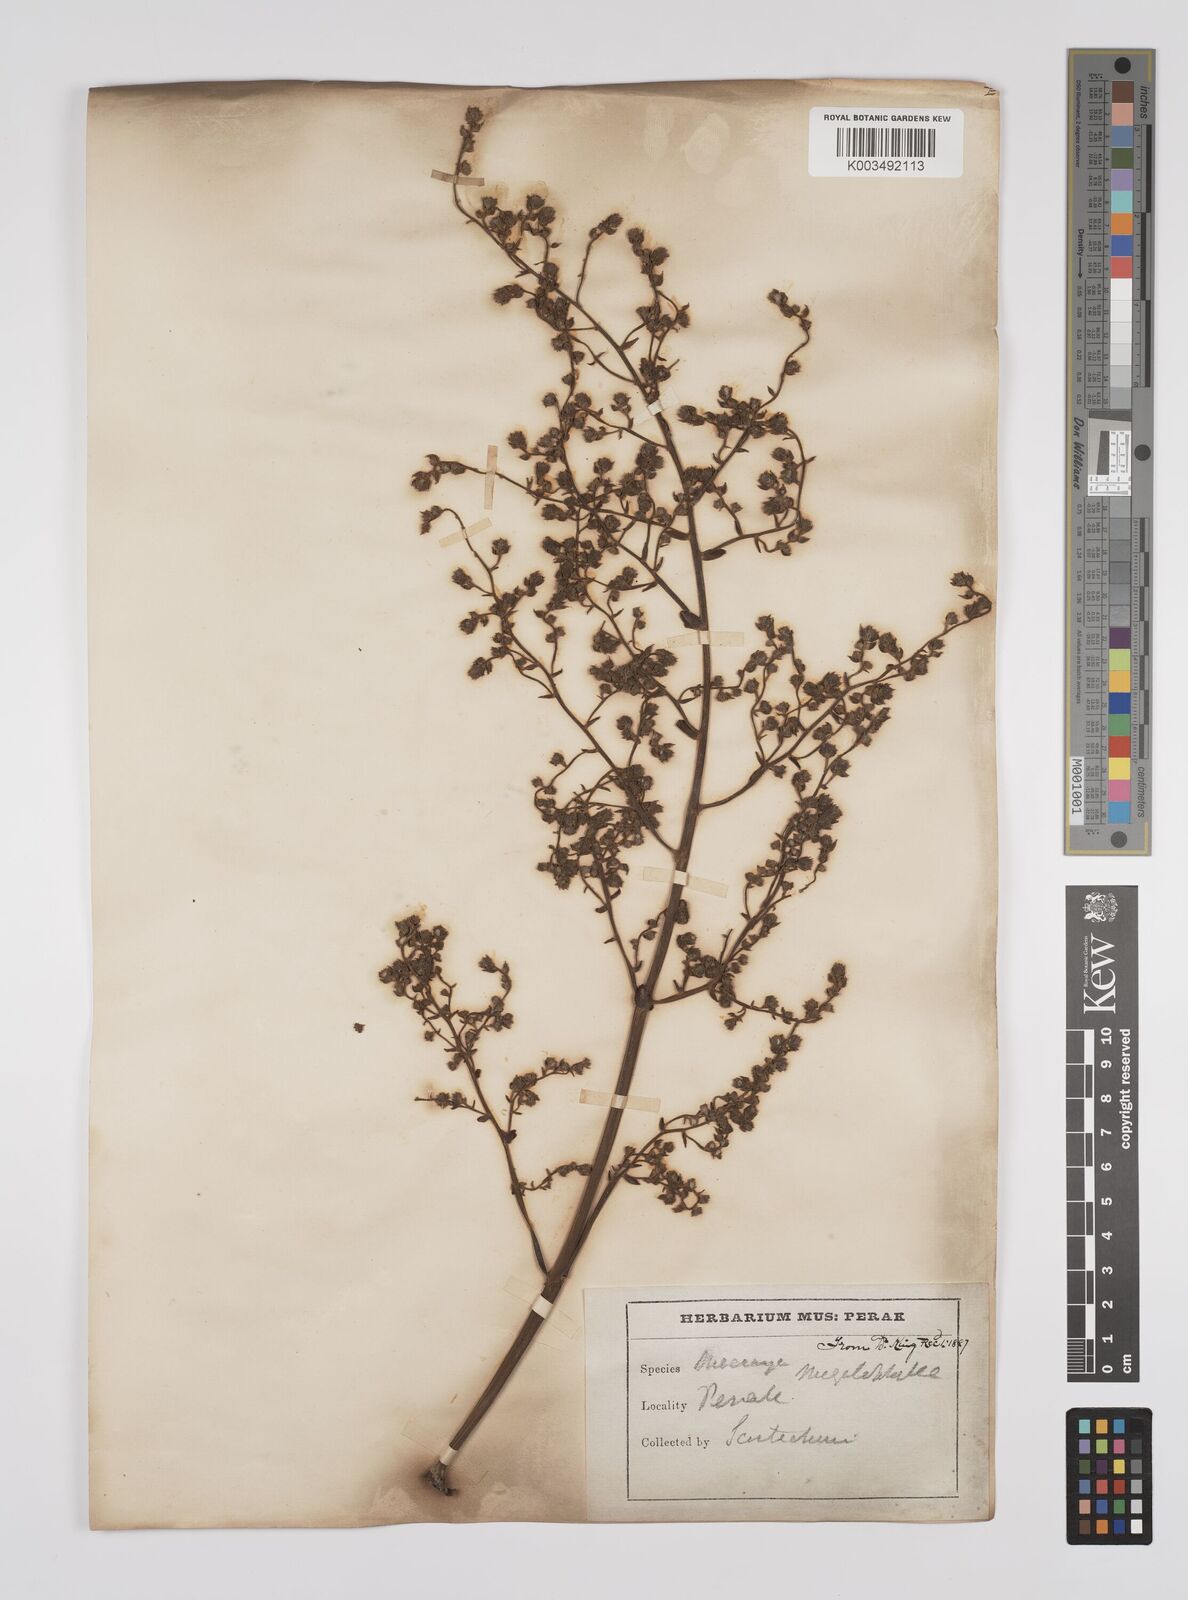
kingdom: Plantae
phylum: Tracheophyta
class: Magnoliopsida
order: Malpighiales
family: Euphorbiaceae
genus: Macaranga
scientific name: Macaranga gigantea
